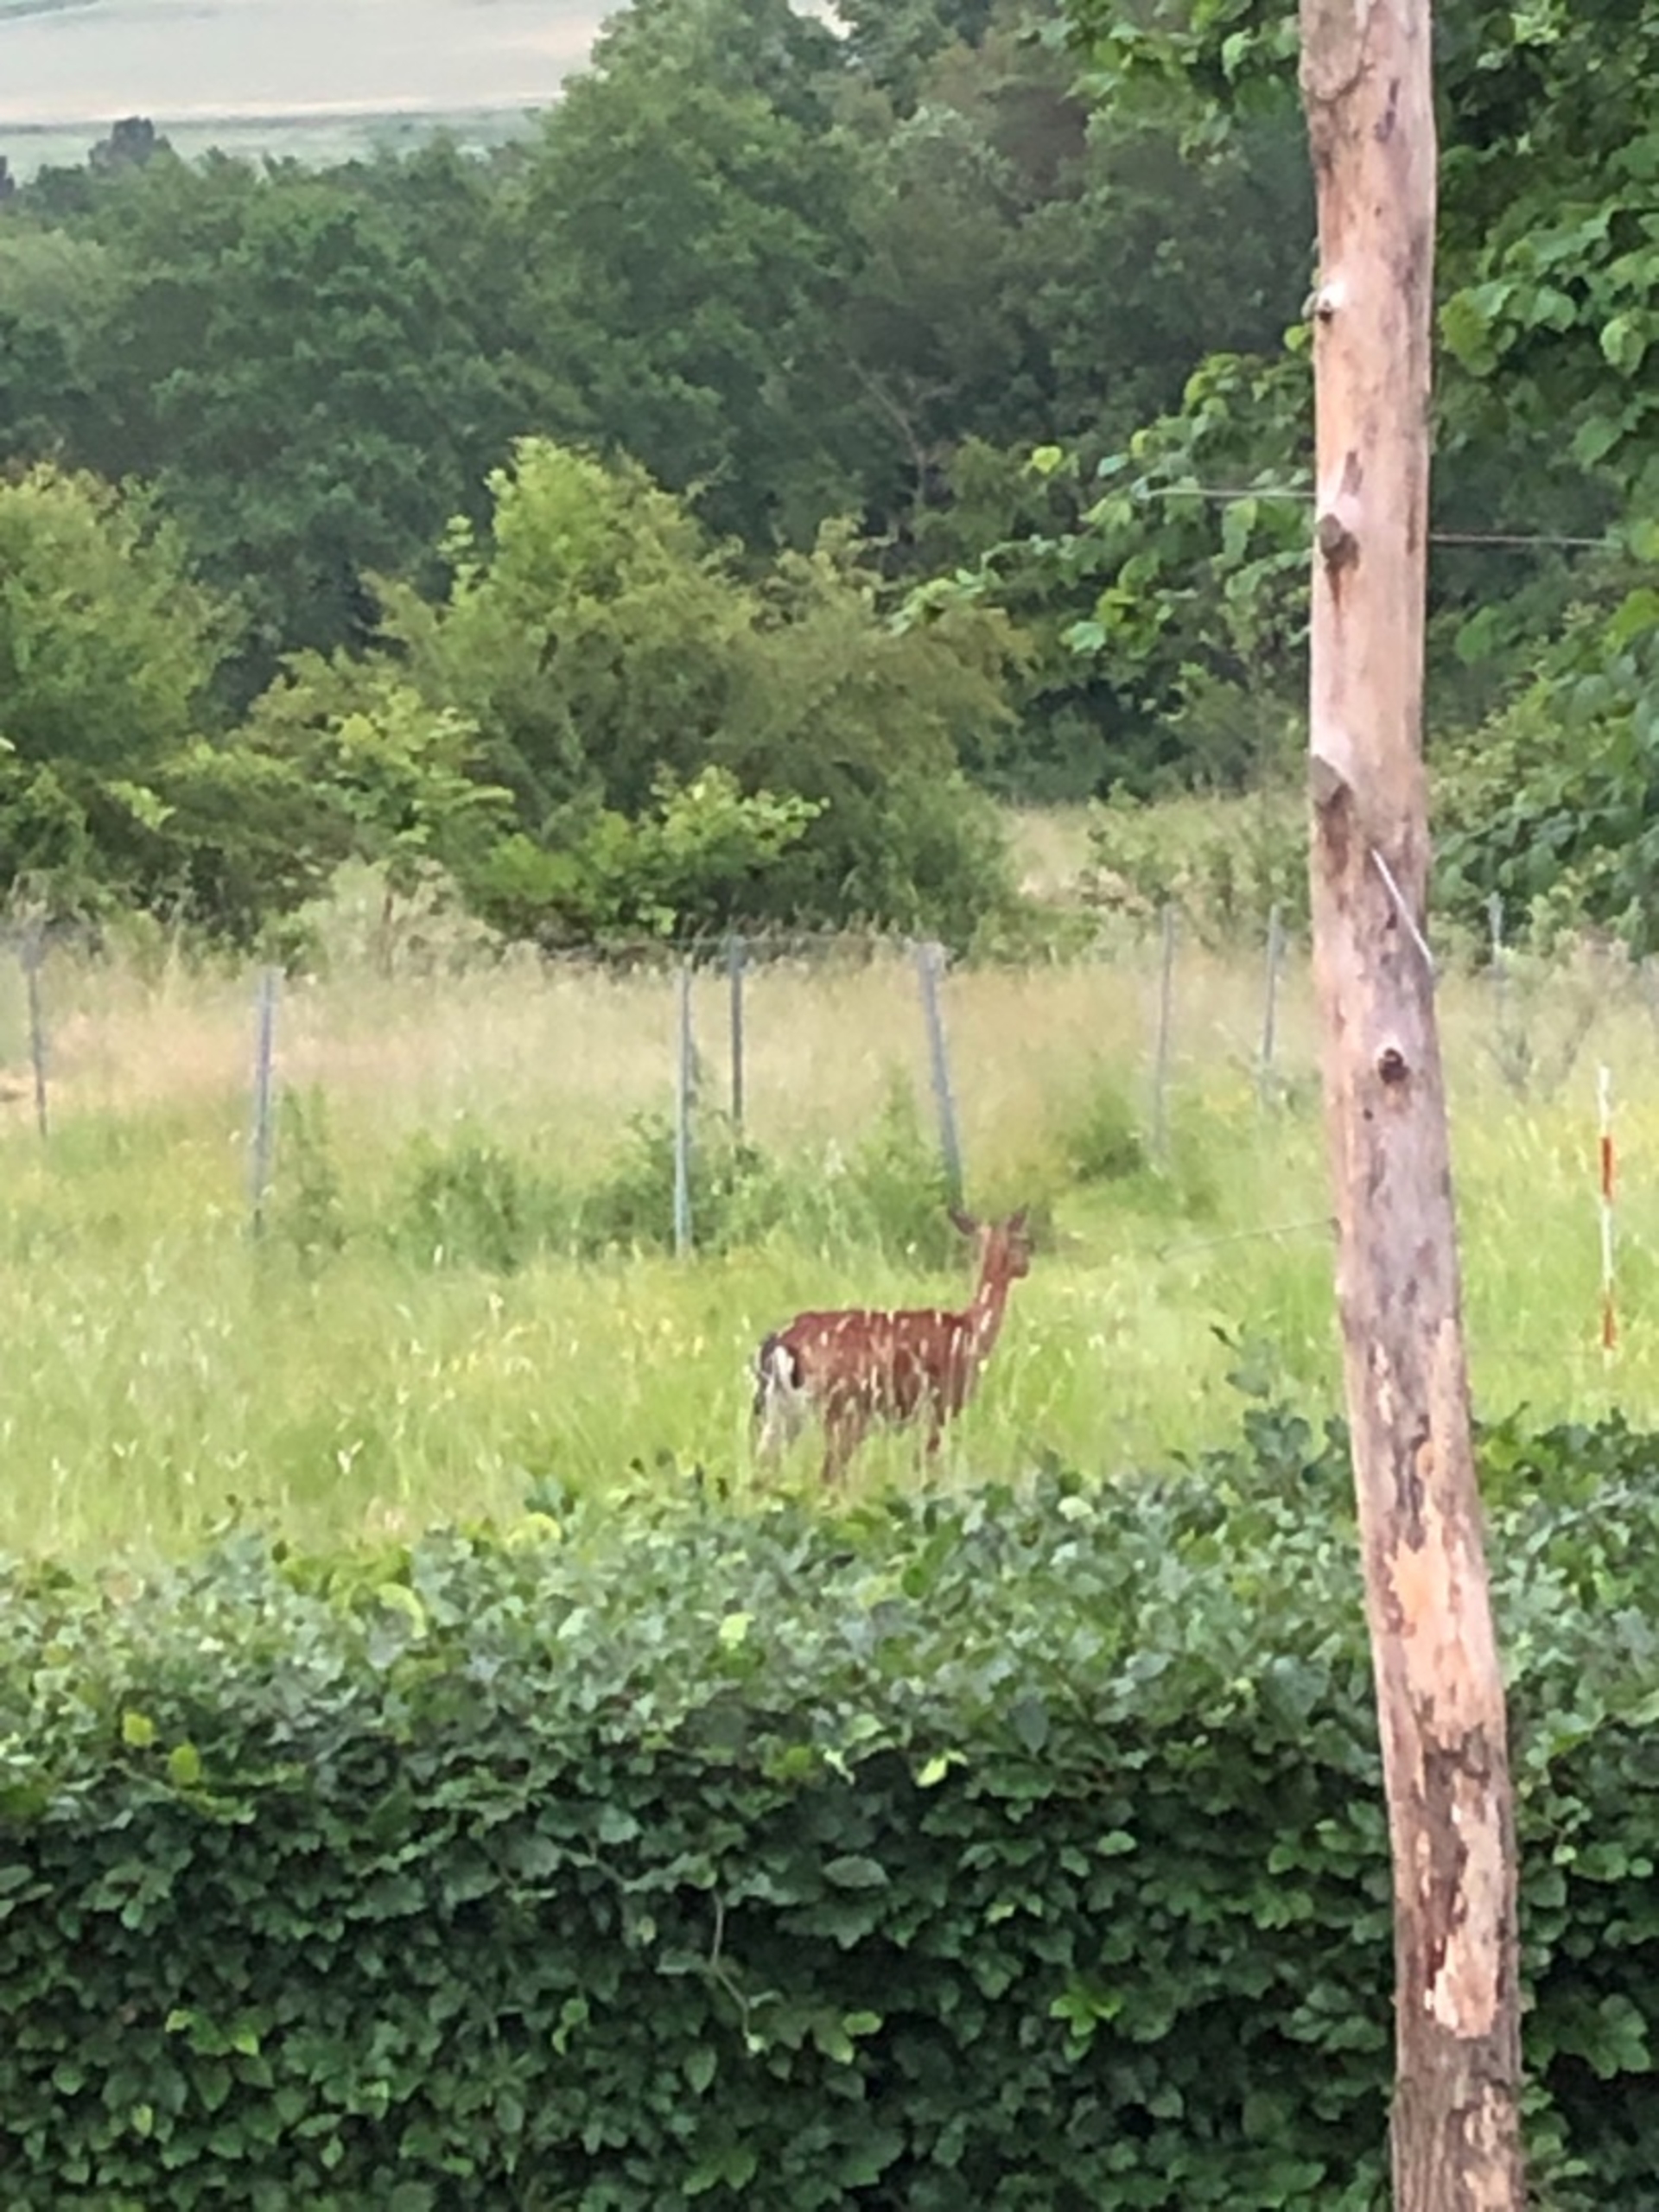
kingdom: Animalia
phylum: Chordata
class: Mammalia
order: Artiodactyla
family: Cervidae
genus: Dama
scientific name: Dama dama
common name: Dådyr
